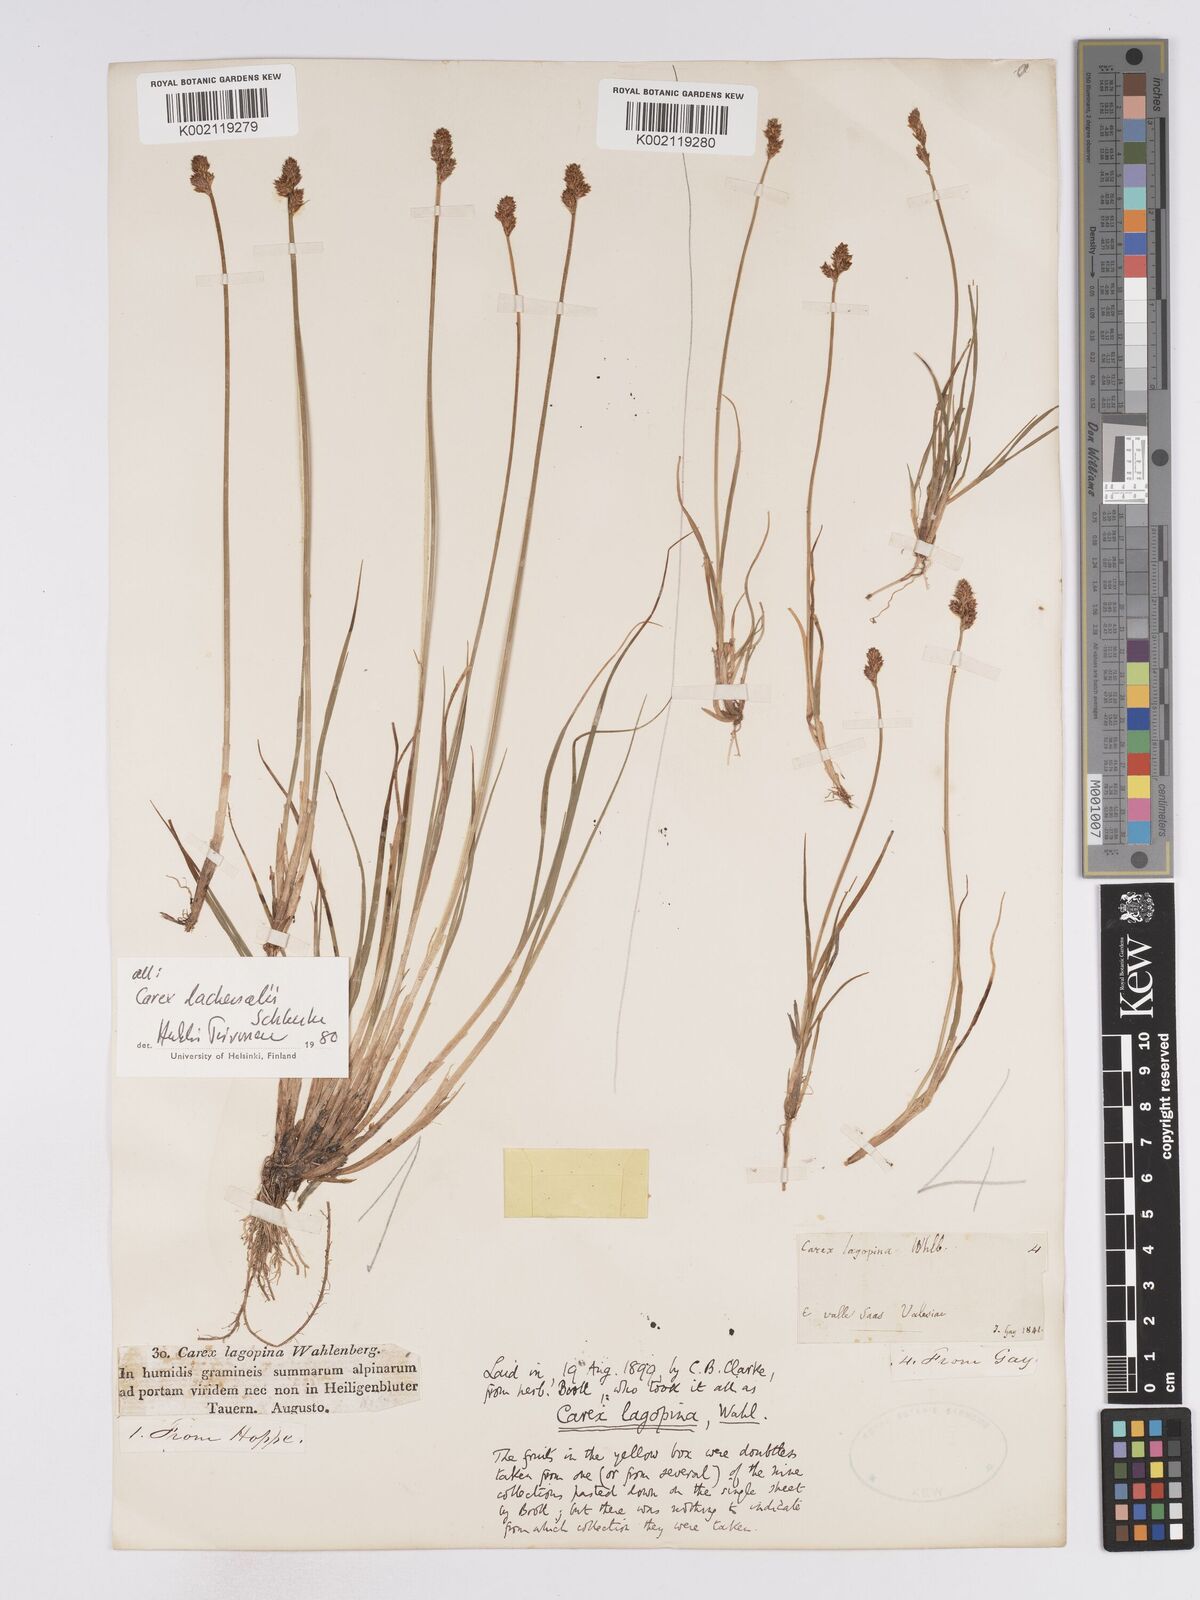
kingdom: Plantae
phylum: Tracheophyta
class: Liliopsida
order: Poales
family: Cyperaceae
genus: Carex
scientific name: Carex lachenalii
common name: Hare's-foot sedge
